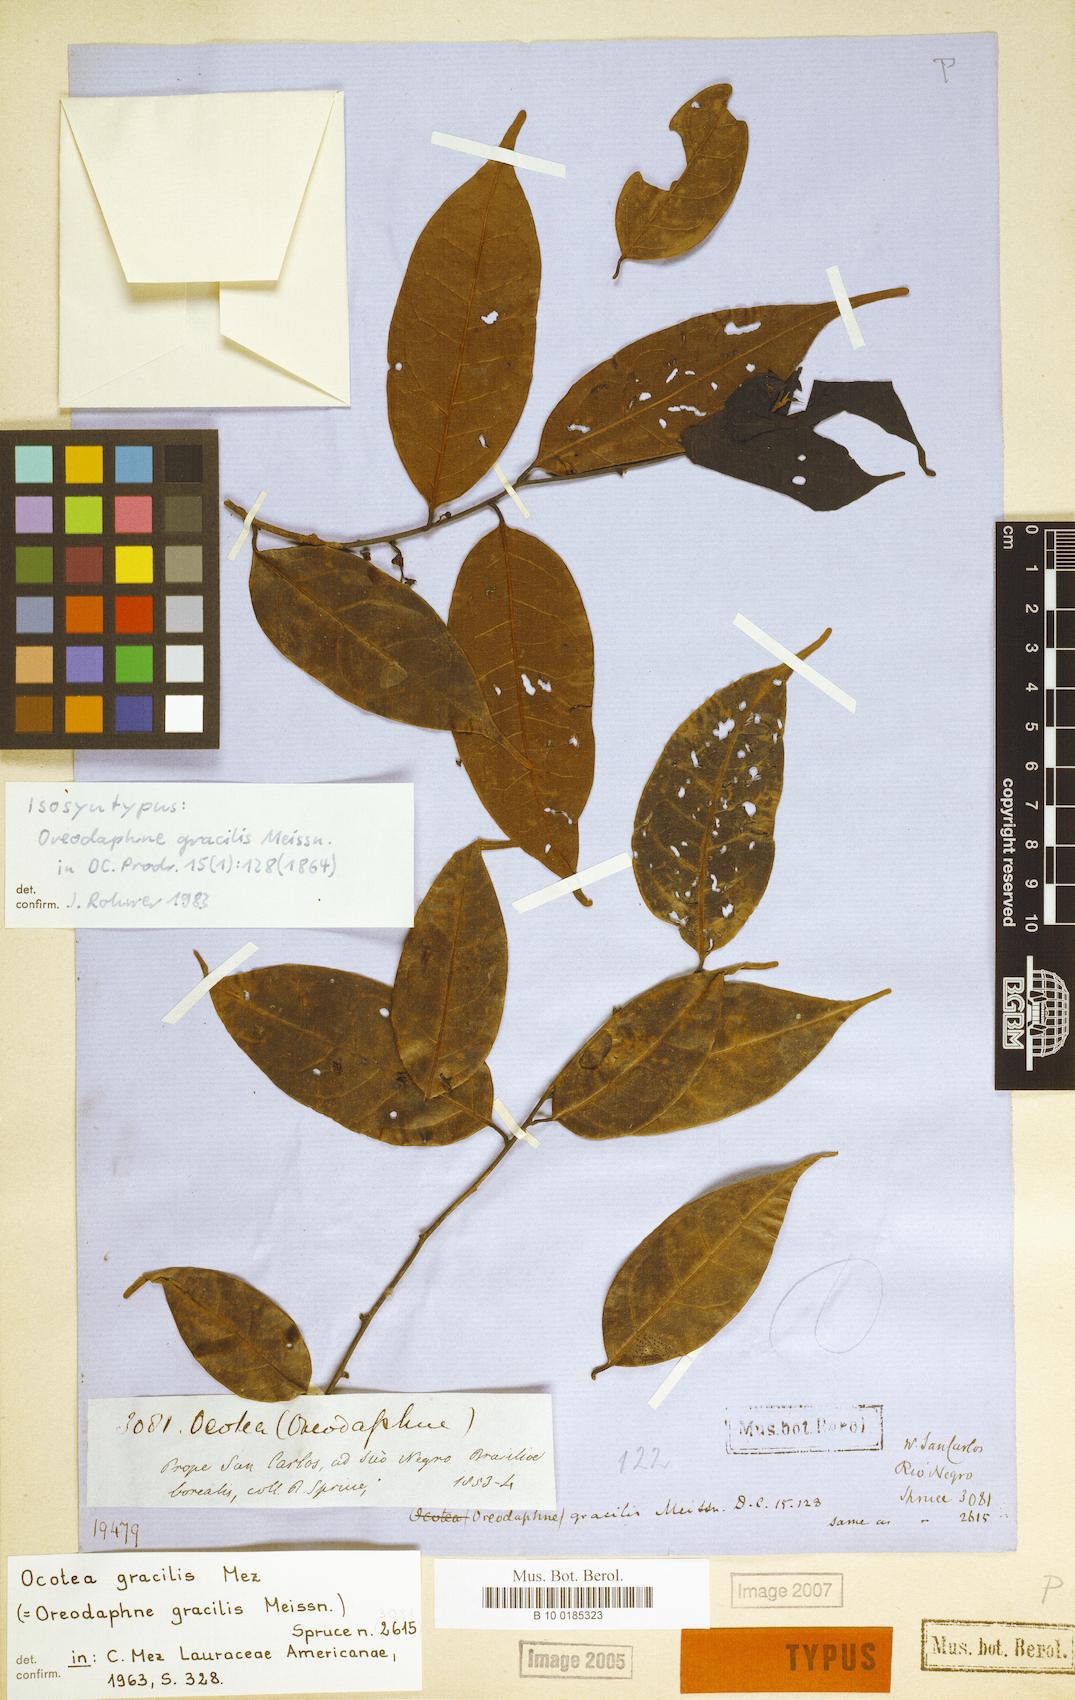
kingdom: Plantae
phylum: Tracheophyta
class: Magnoliopsida
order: Laurales
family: Lauraceae
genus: Ocotea
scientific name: Ocotea gracilis
